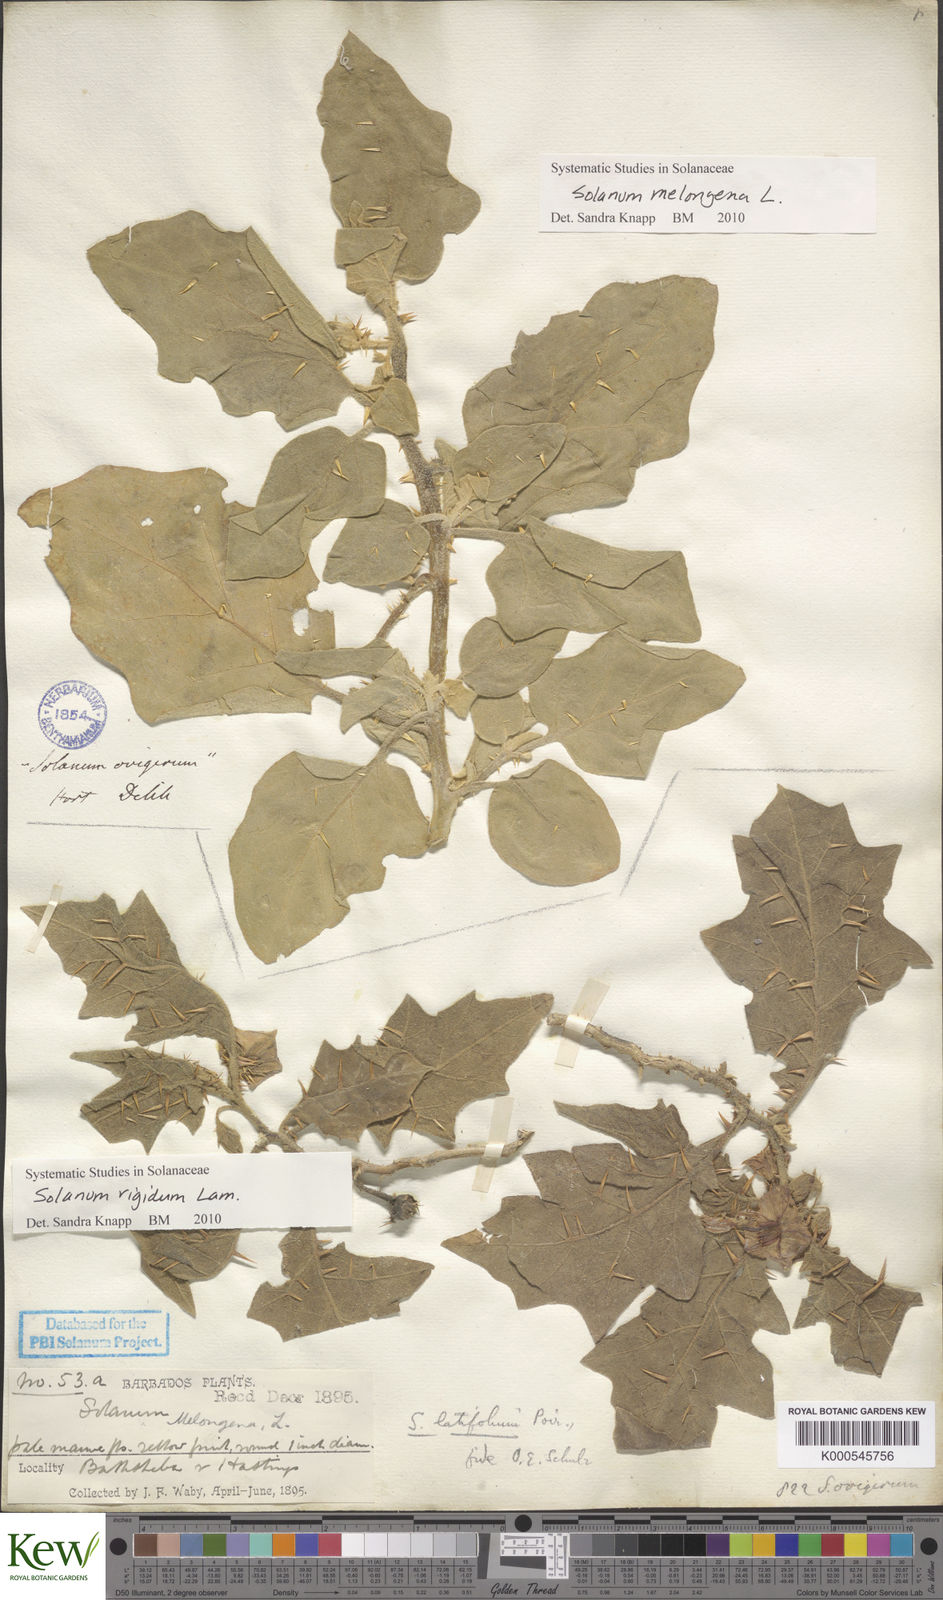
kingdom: Plantae
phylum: Tracheophyta
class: Magnoliopsida
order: Solanales
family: Solanaceae
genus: Solanum
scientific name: Solanum rigidum
